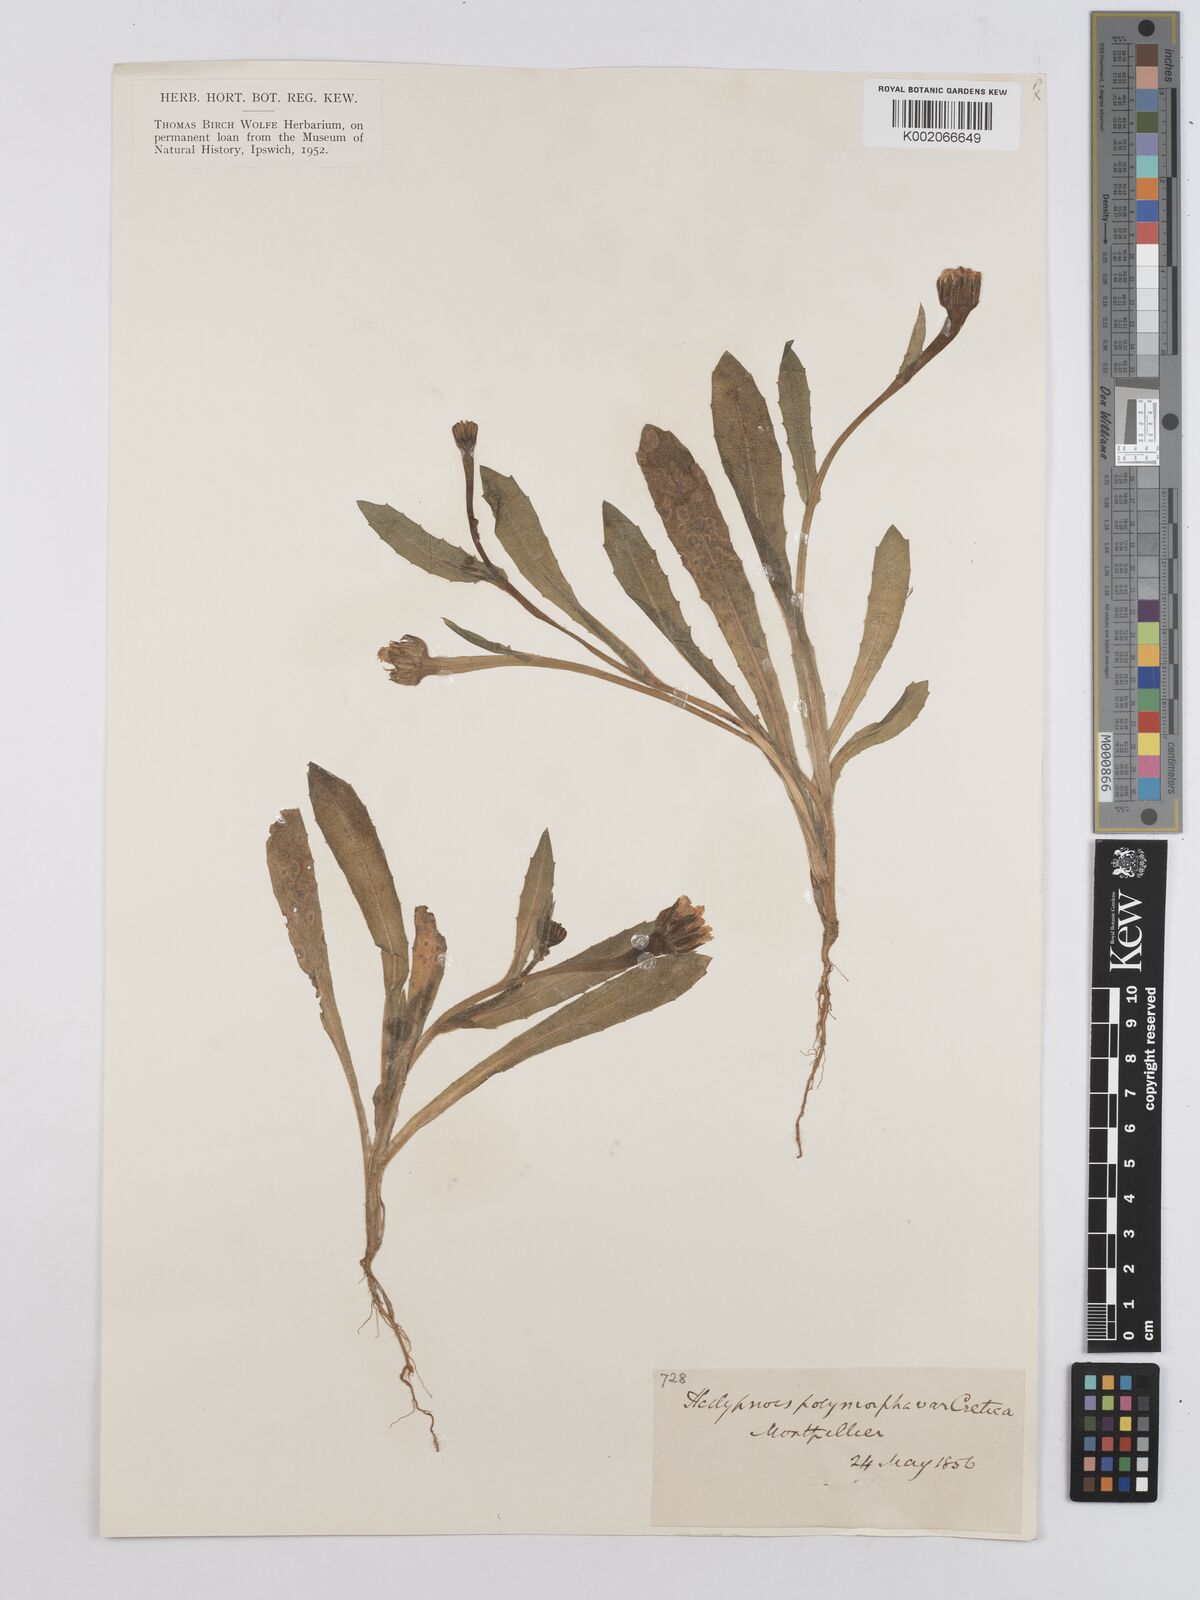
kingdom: Plantae
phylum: Tracheophyta
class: Magnoliopsida
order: Asterales
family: Asteraceae
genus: Hedypnois
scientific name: Hedypnois rhagadioloides
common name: Cretan weed
